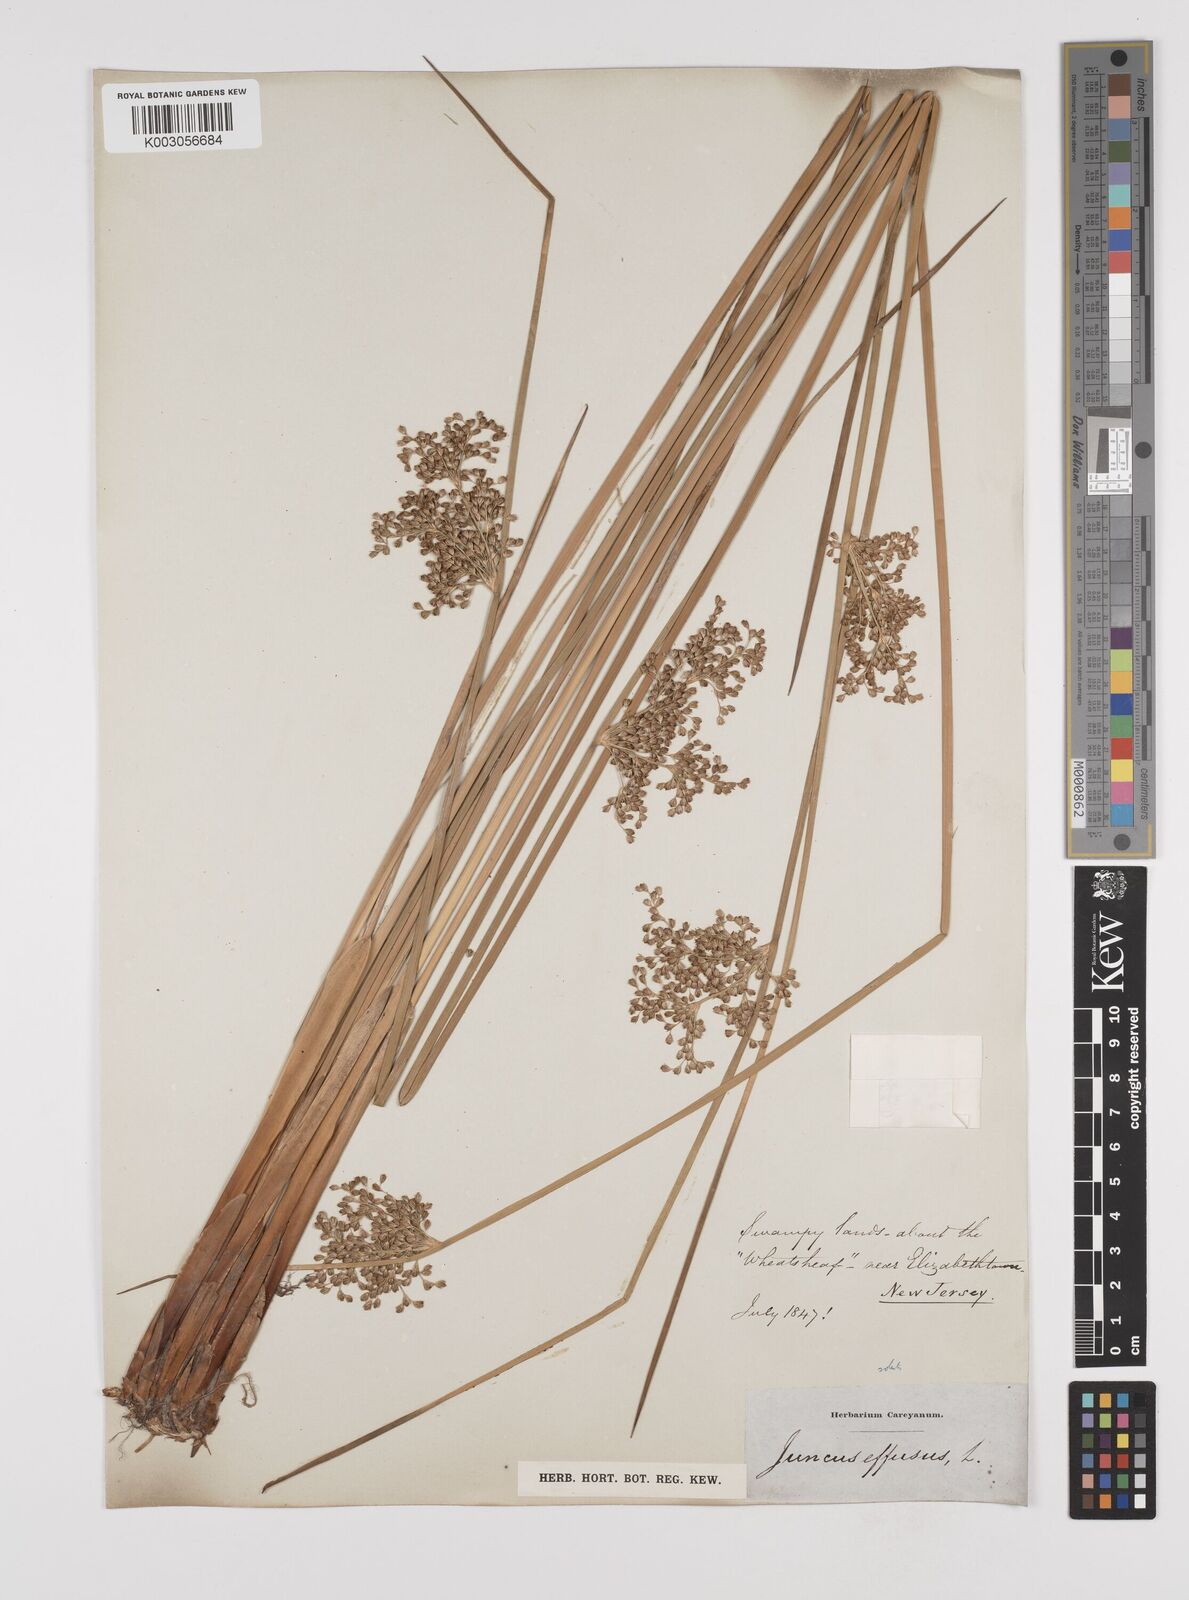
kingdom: Plantae
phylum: Tracheophyta
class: Liliopsida
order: Poales
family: Juncaceae
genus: Juncus
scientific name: Juncus effusus
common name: Soft rush
